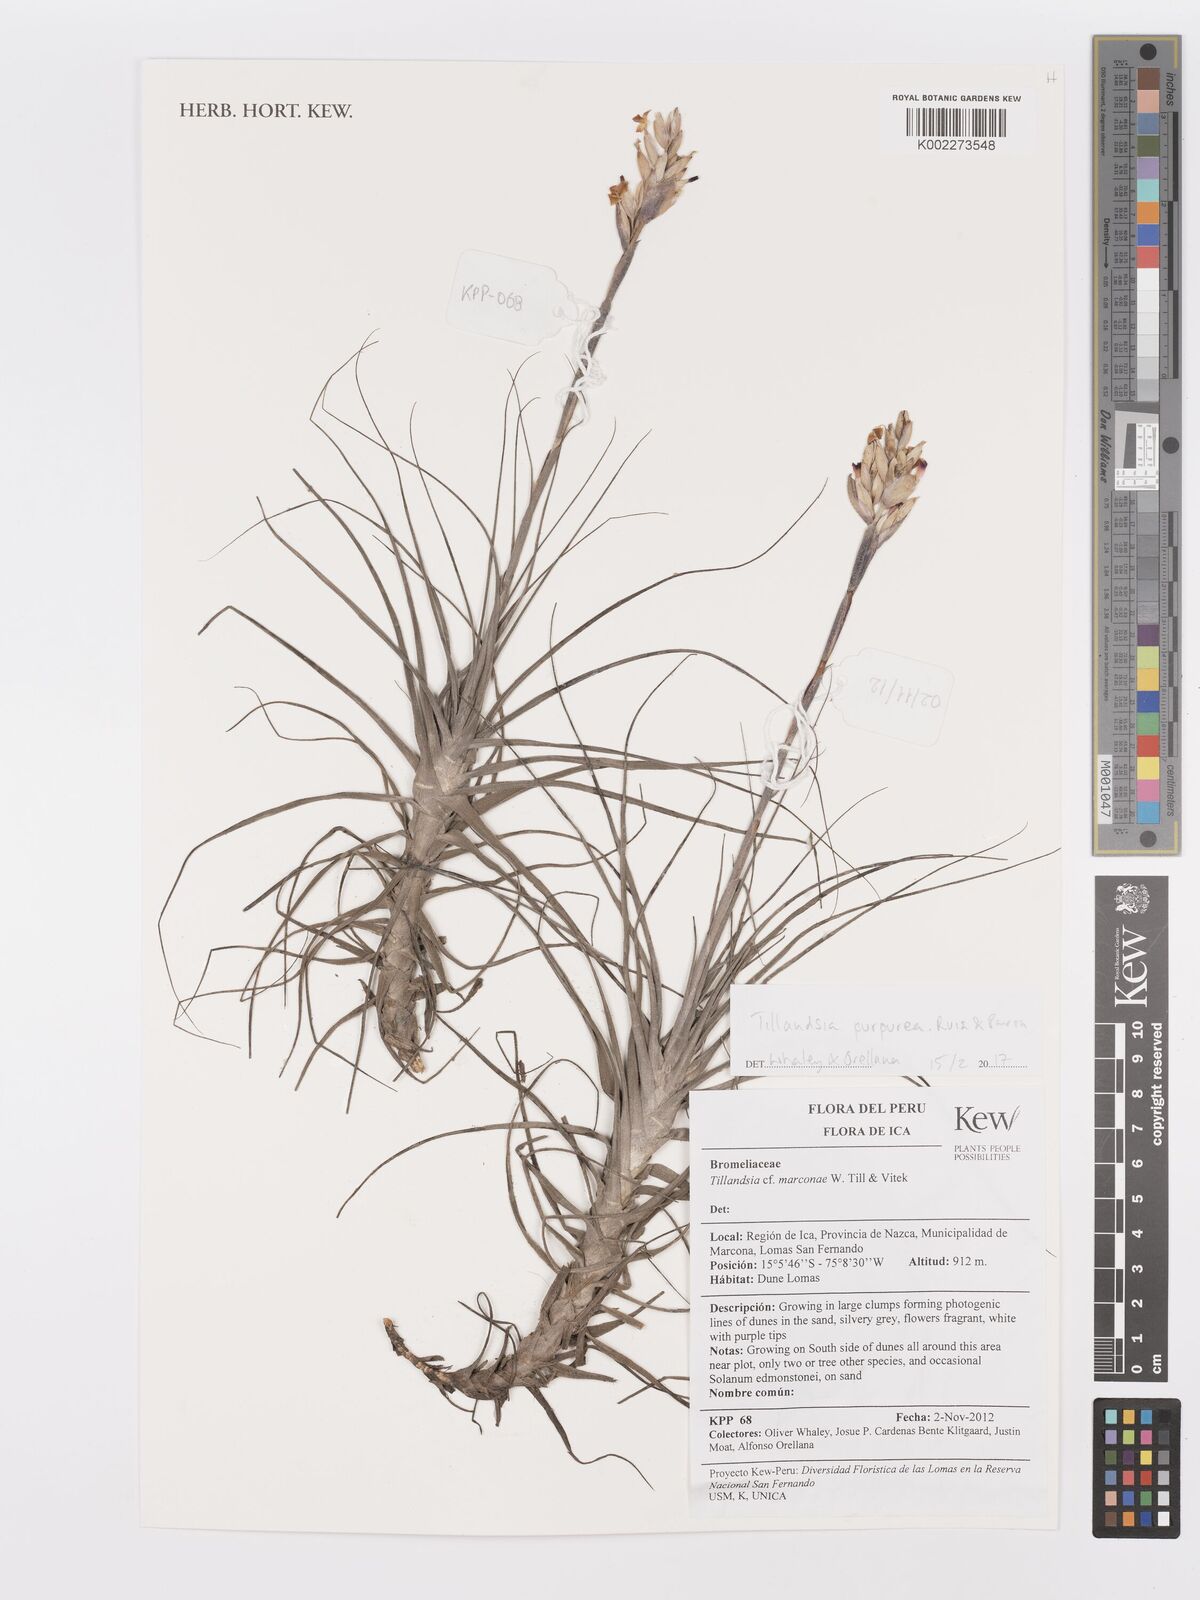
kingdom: Plantae
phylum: Tracheophyta
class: Liliopsida
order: Poales
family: Bromeliaceae
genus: Tillandsia
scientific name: Tillandsia purpurea
